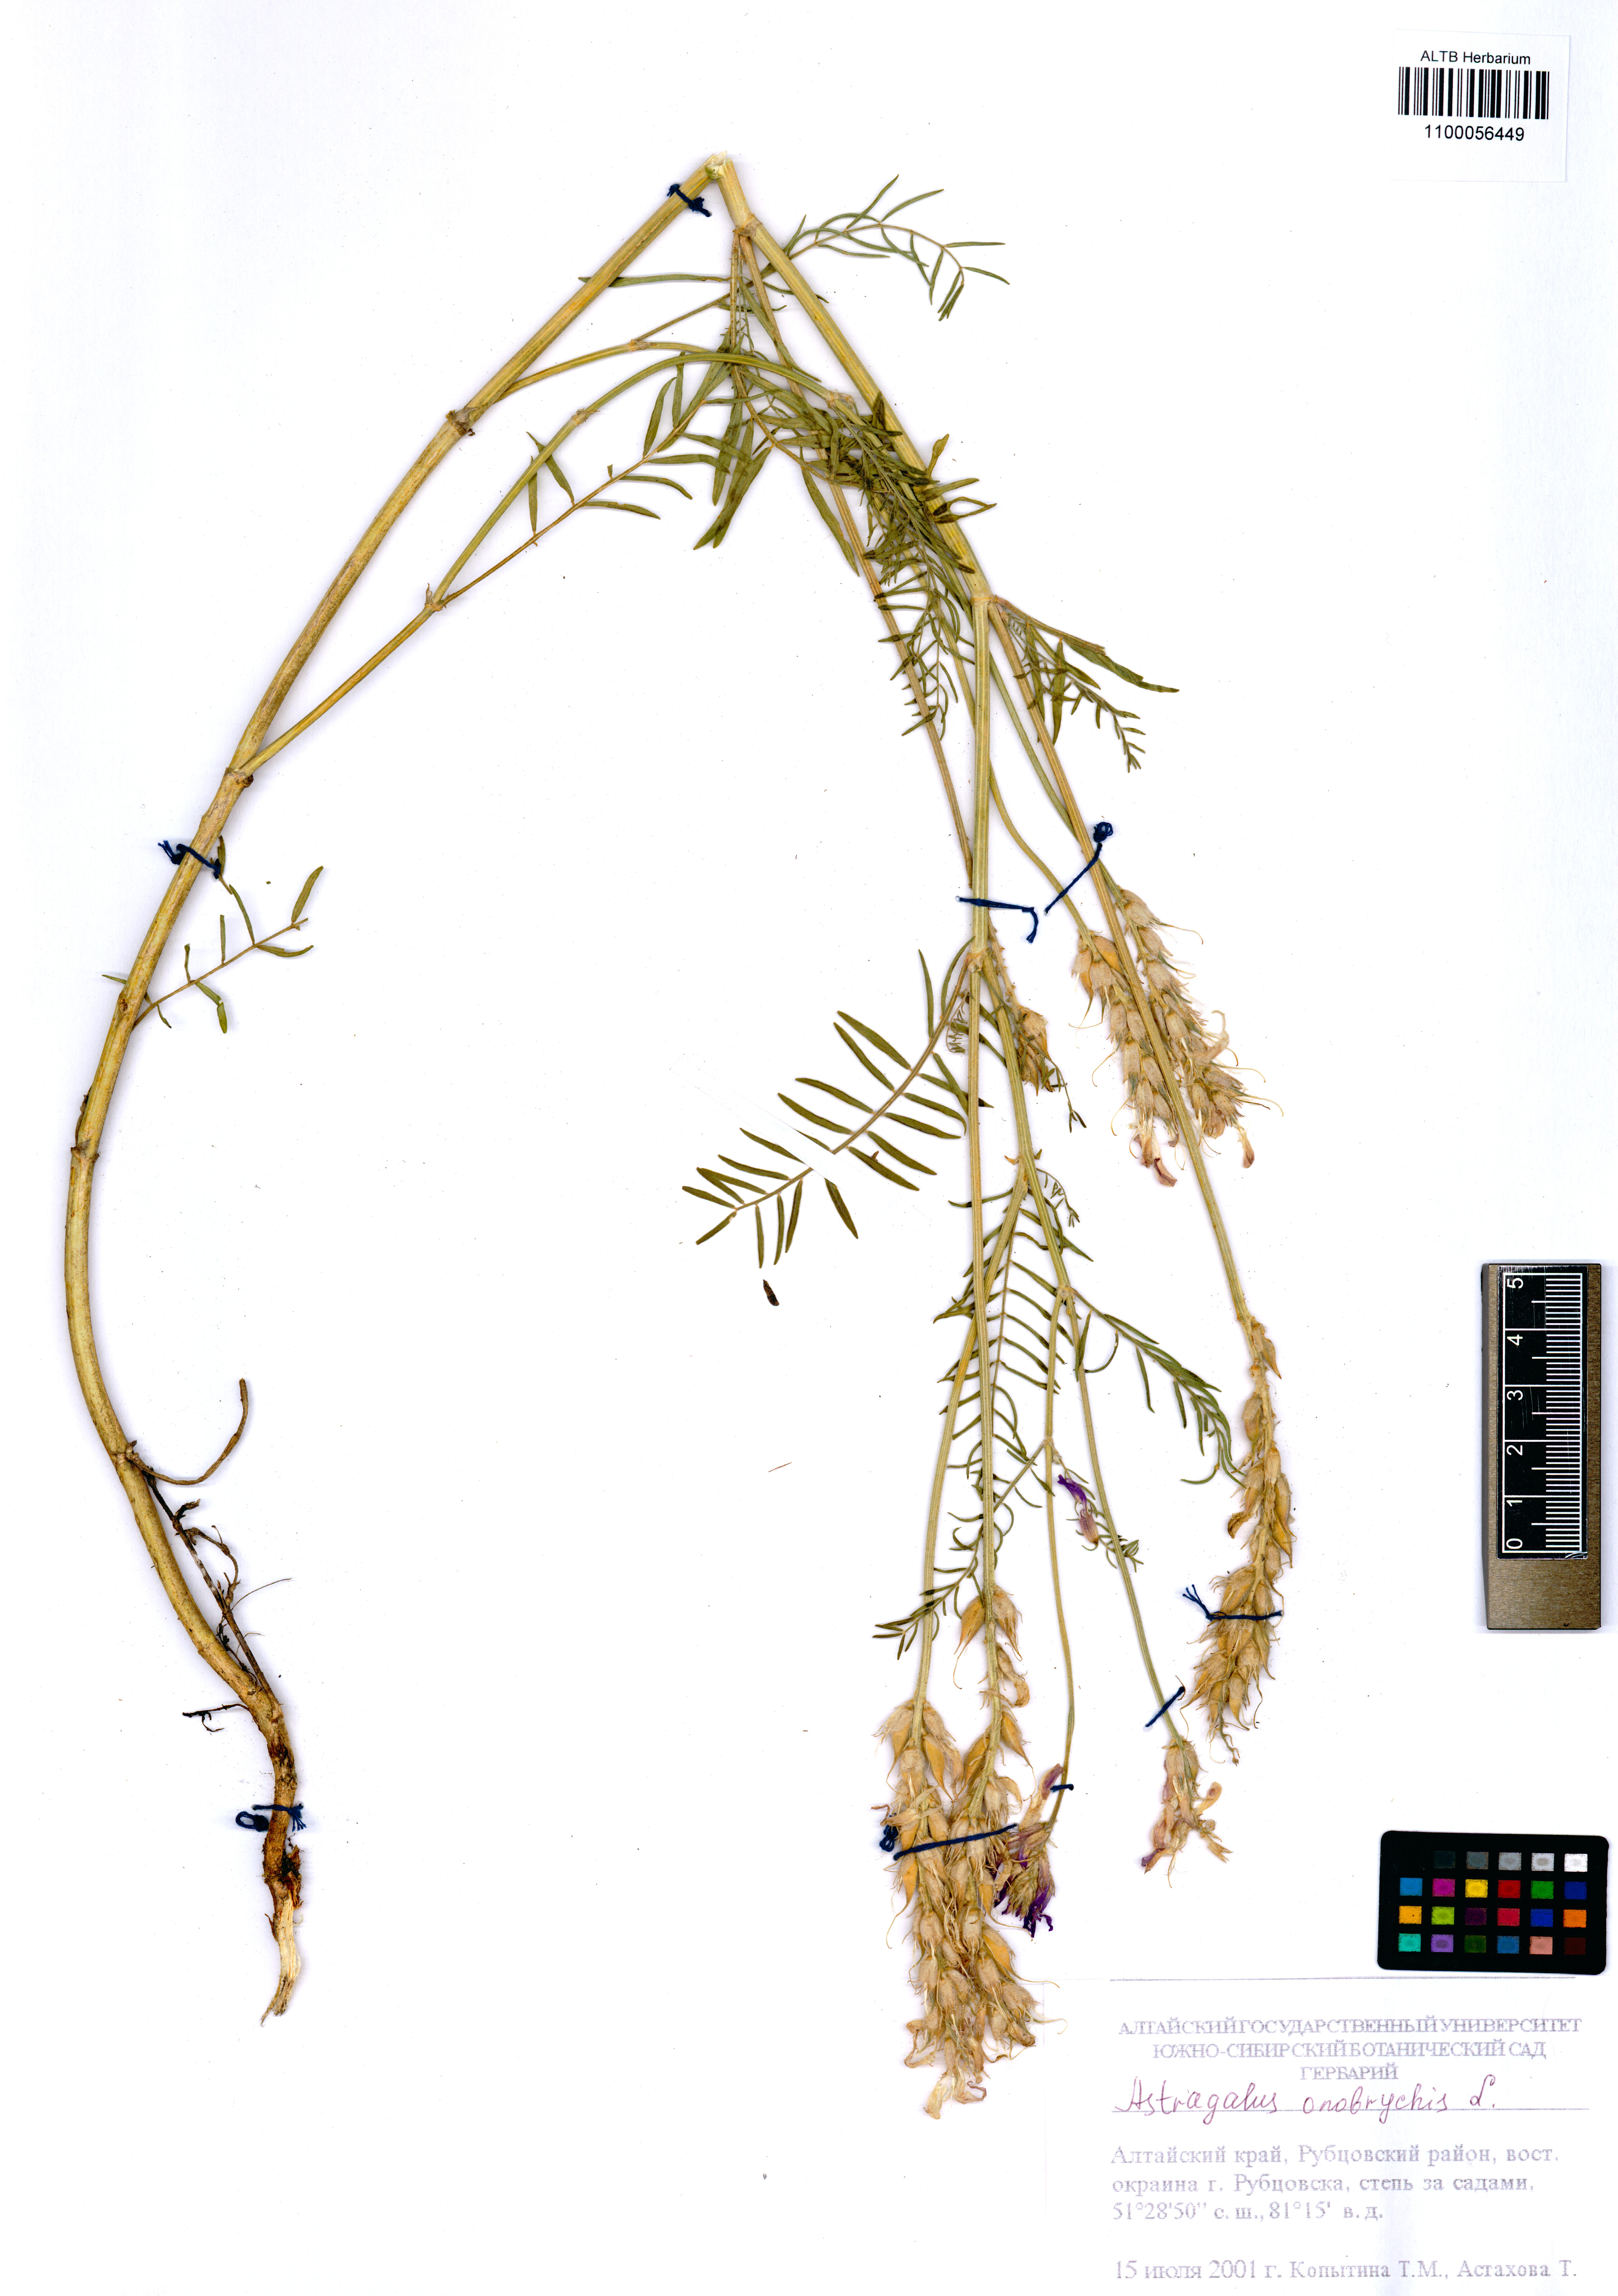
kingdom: Plantae
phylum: Tracheophyta
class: Magnoliopsida
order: Fabales
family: Fabaceae
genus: Astragalus
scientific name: Astragalus onobrychis
